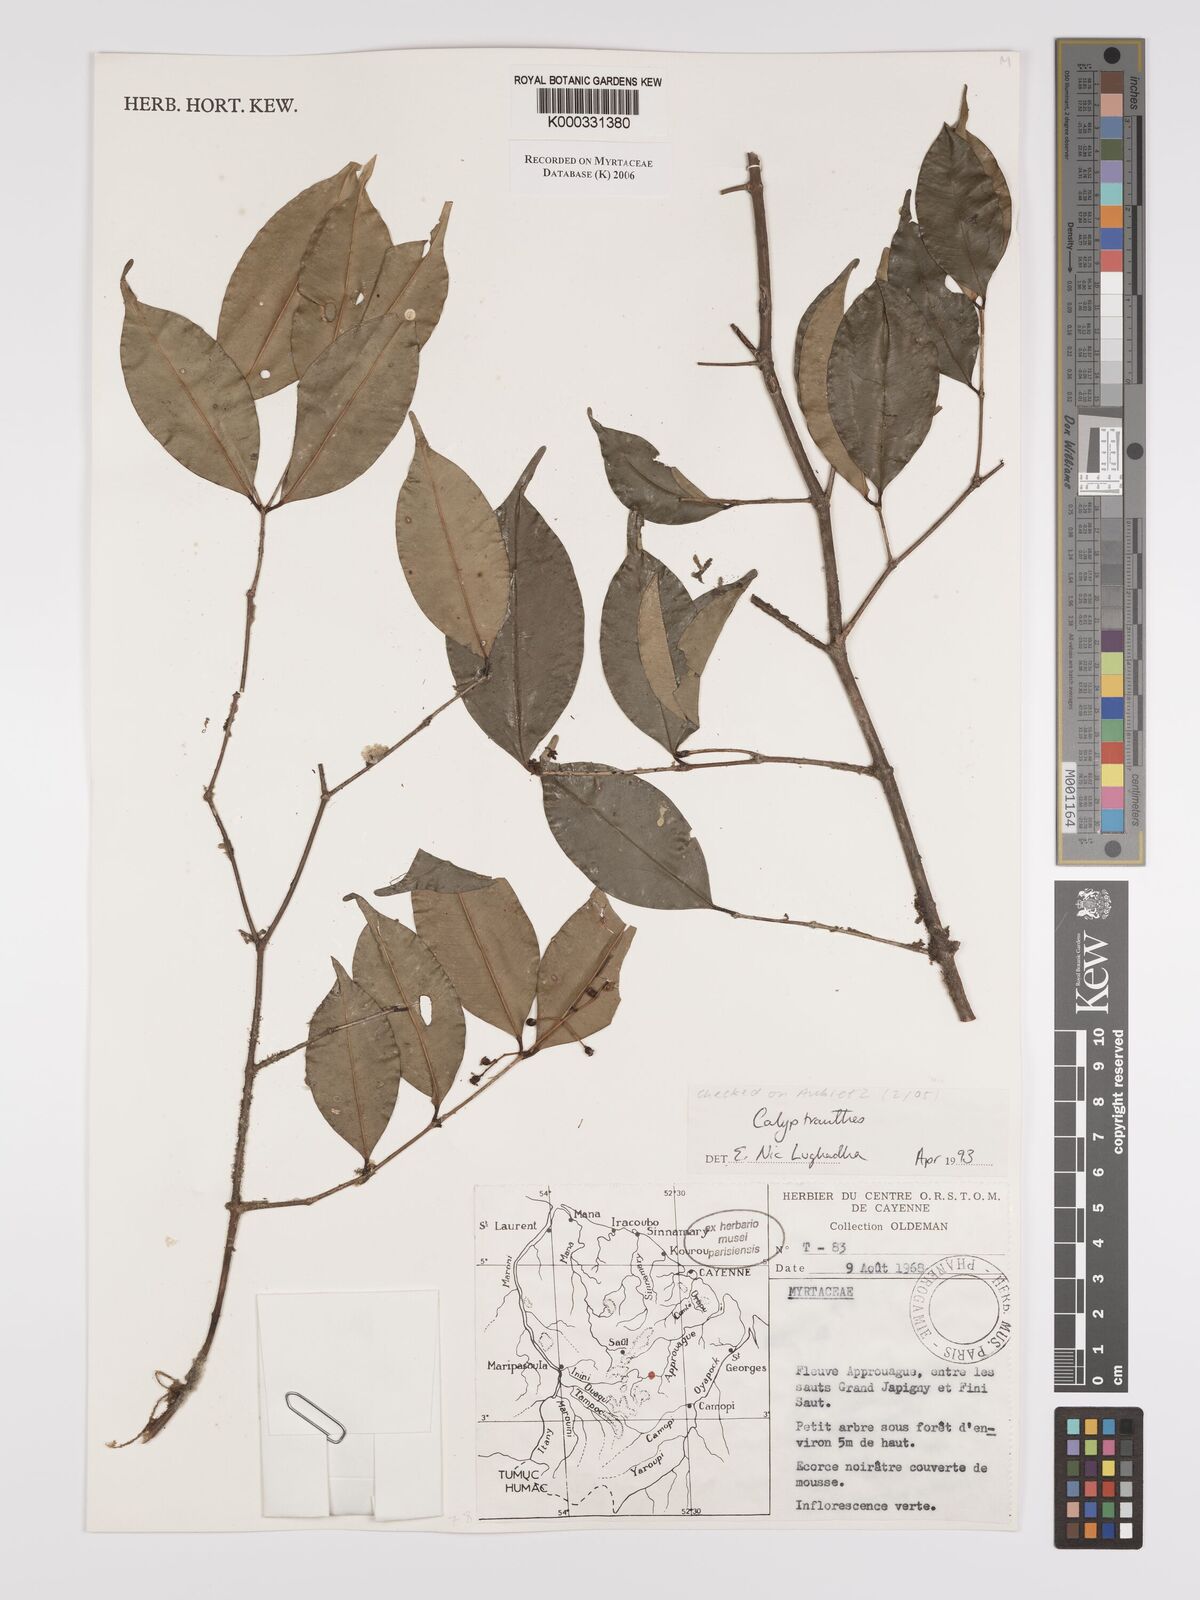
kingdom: Plantae
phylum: Tracheophyta
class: Magnoliopsida
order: Myrtales
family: Myrtaceae
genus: Calyptranthes
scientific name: Calyptranthes
